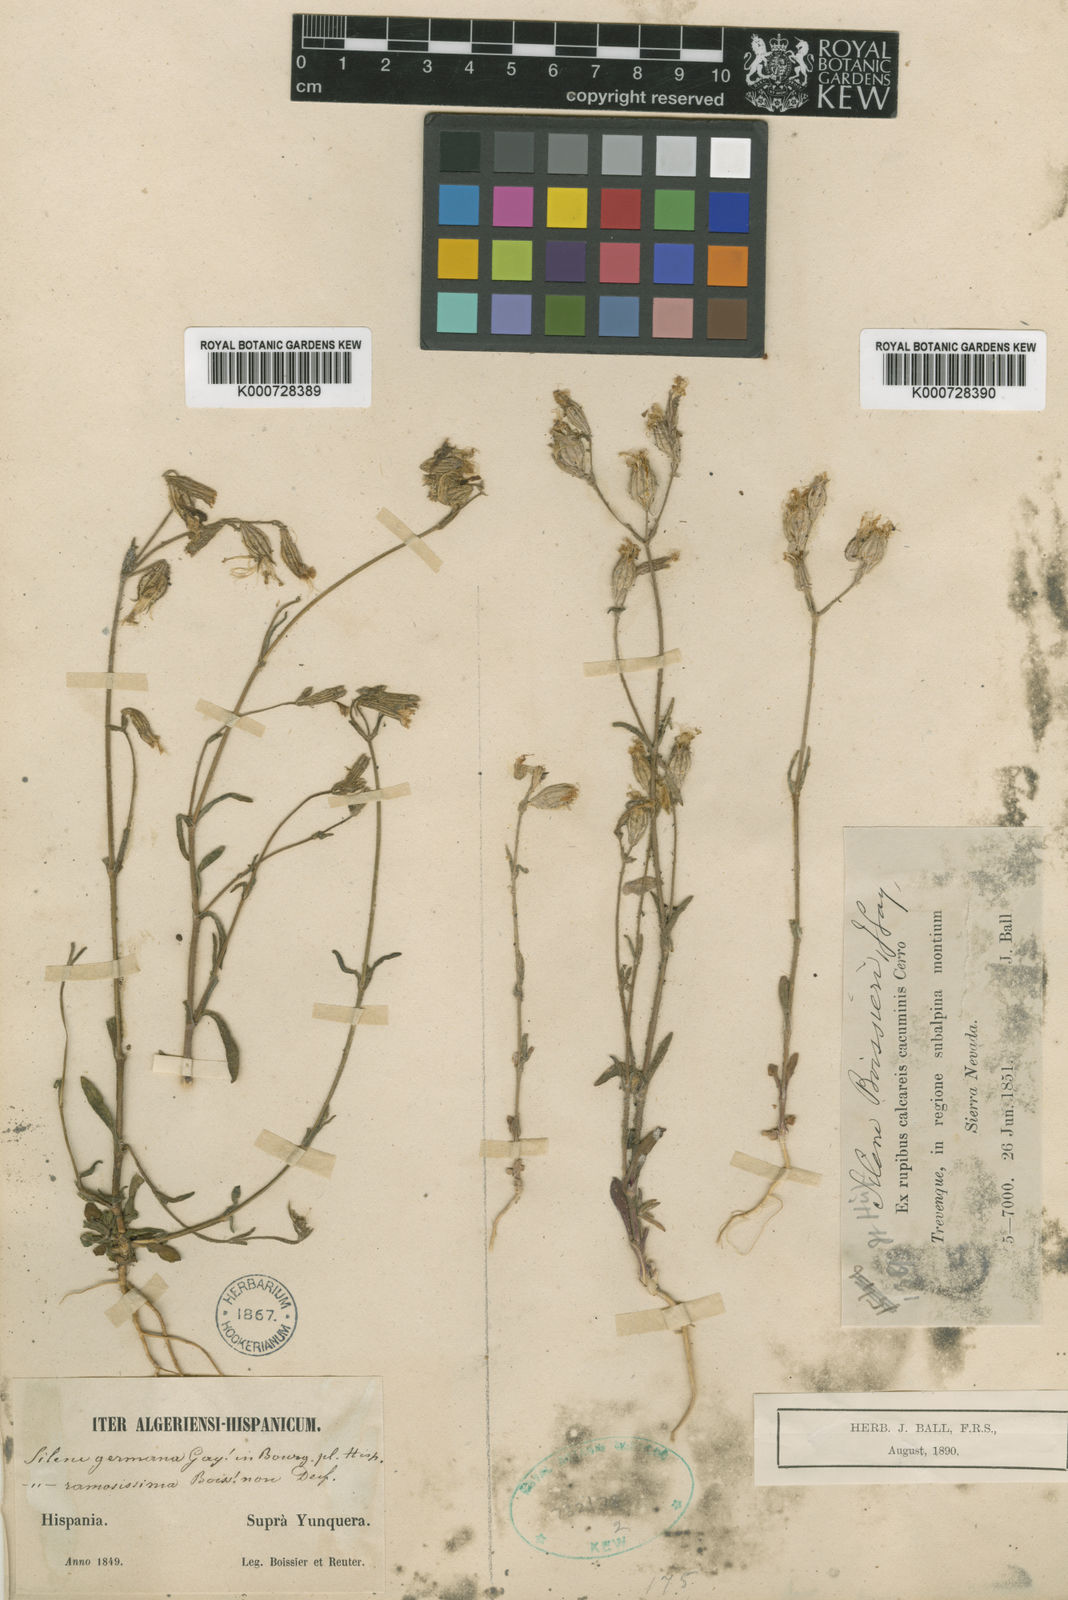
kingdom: Plantae
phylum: Tracheophyta
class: Magnoliopsida
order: Caryophyllales
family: Caryophyllaceae
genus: Silene
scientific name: Silene germana
